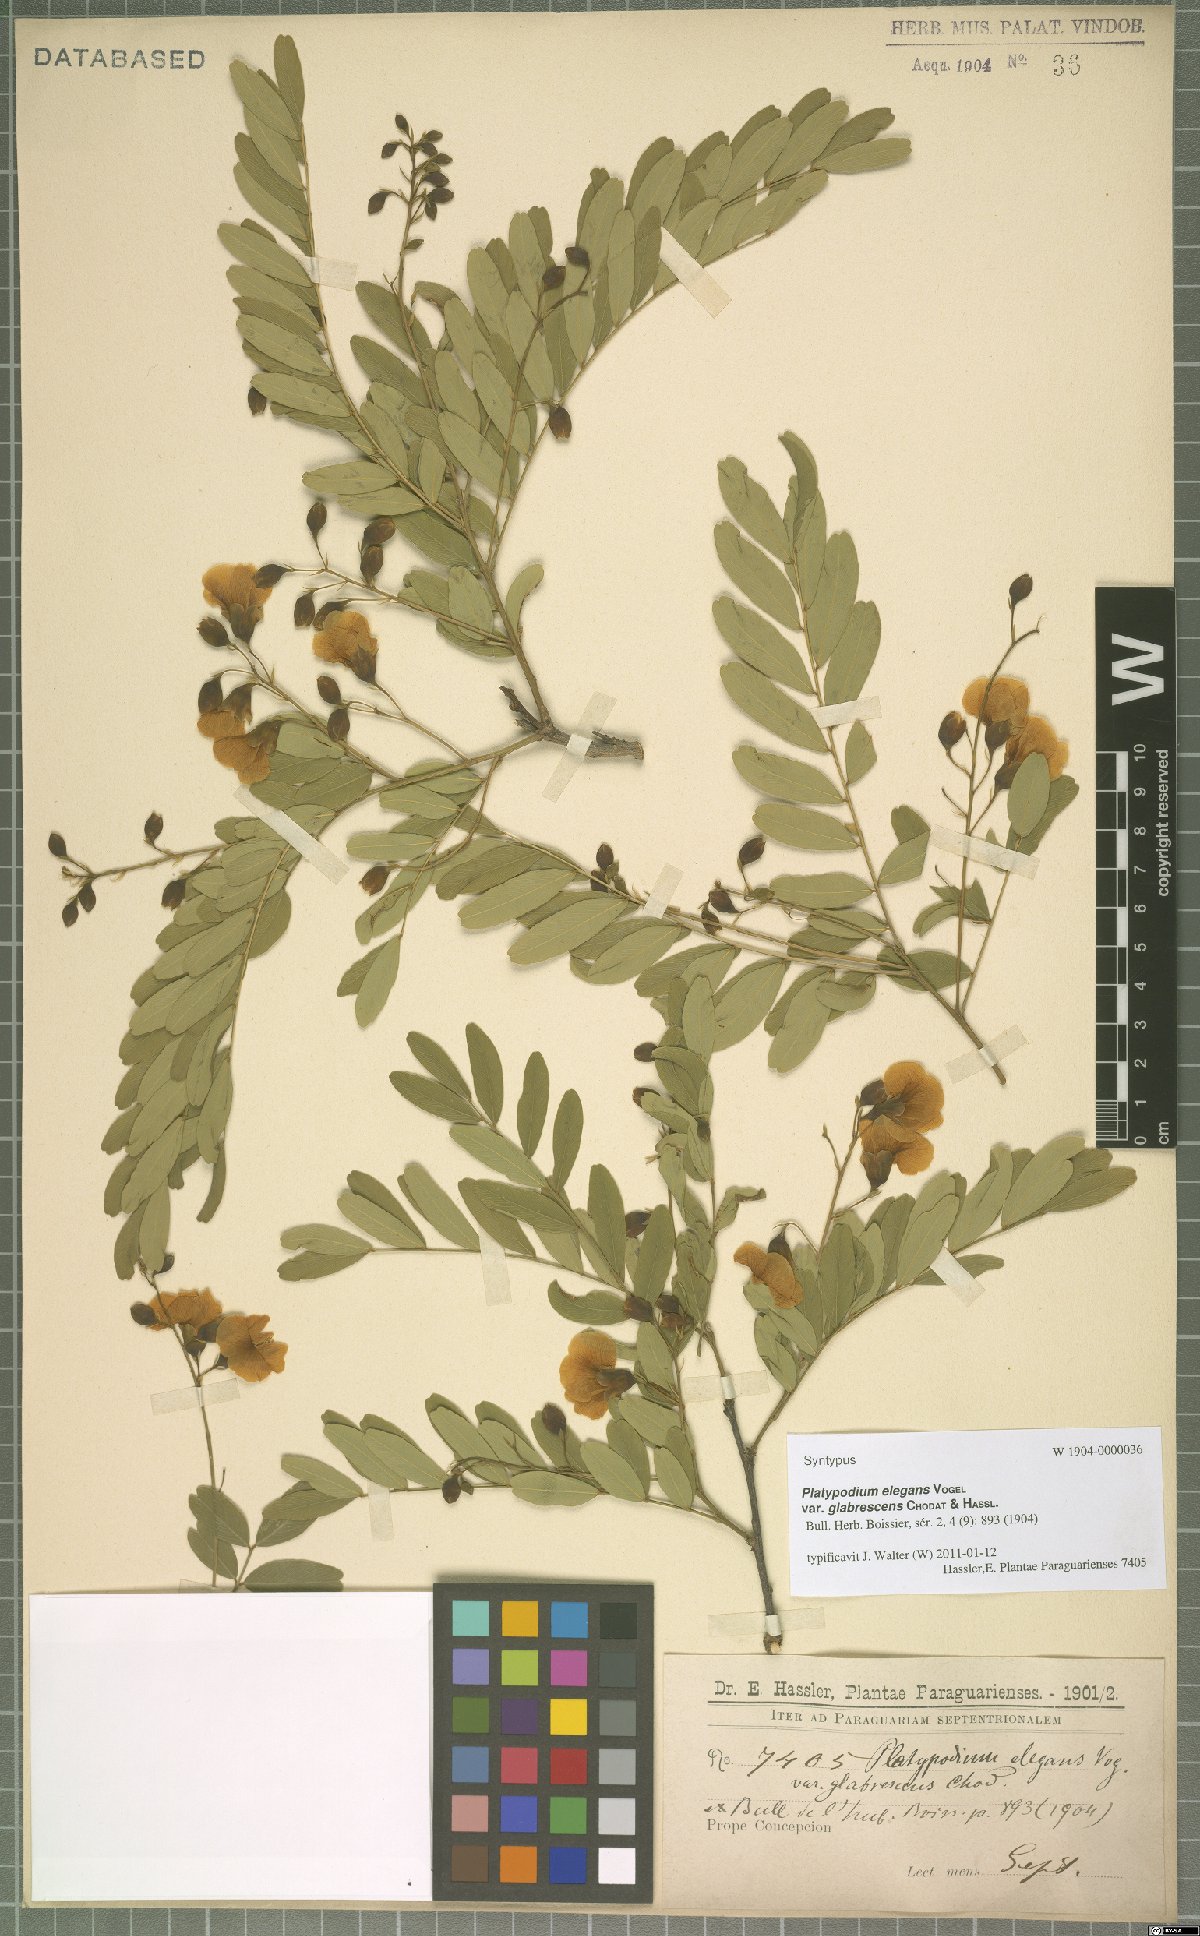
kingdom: Plantae
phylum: Tracheophyta
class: Magnoliopsida
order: Fabales
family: Fabaceae
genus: Platypodium
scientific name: Platypodium elegans
